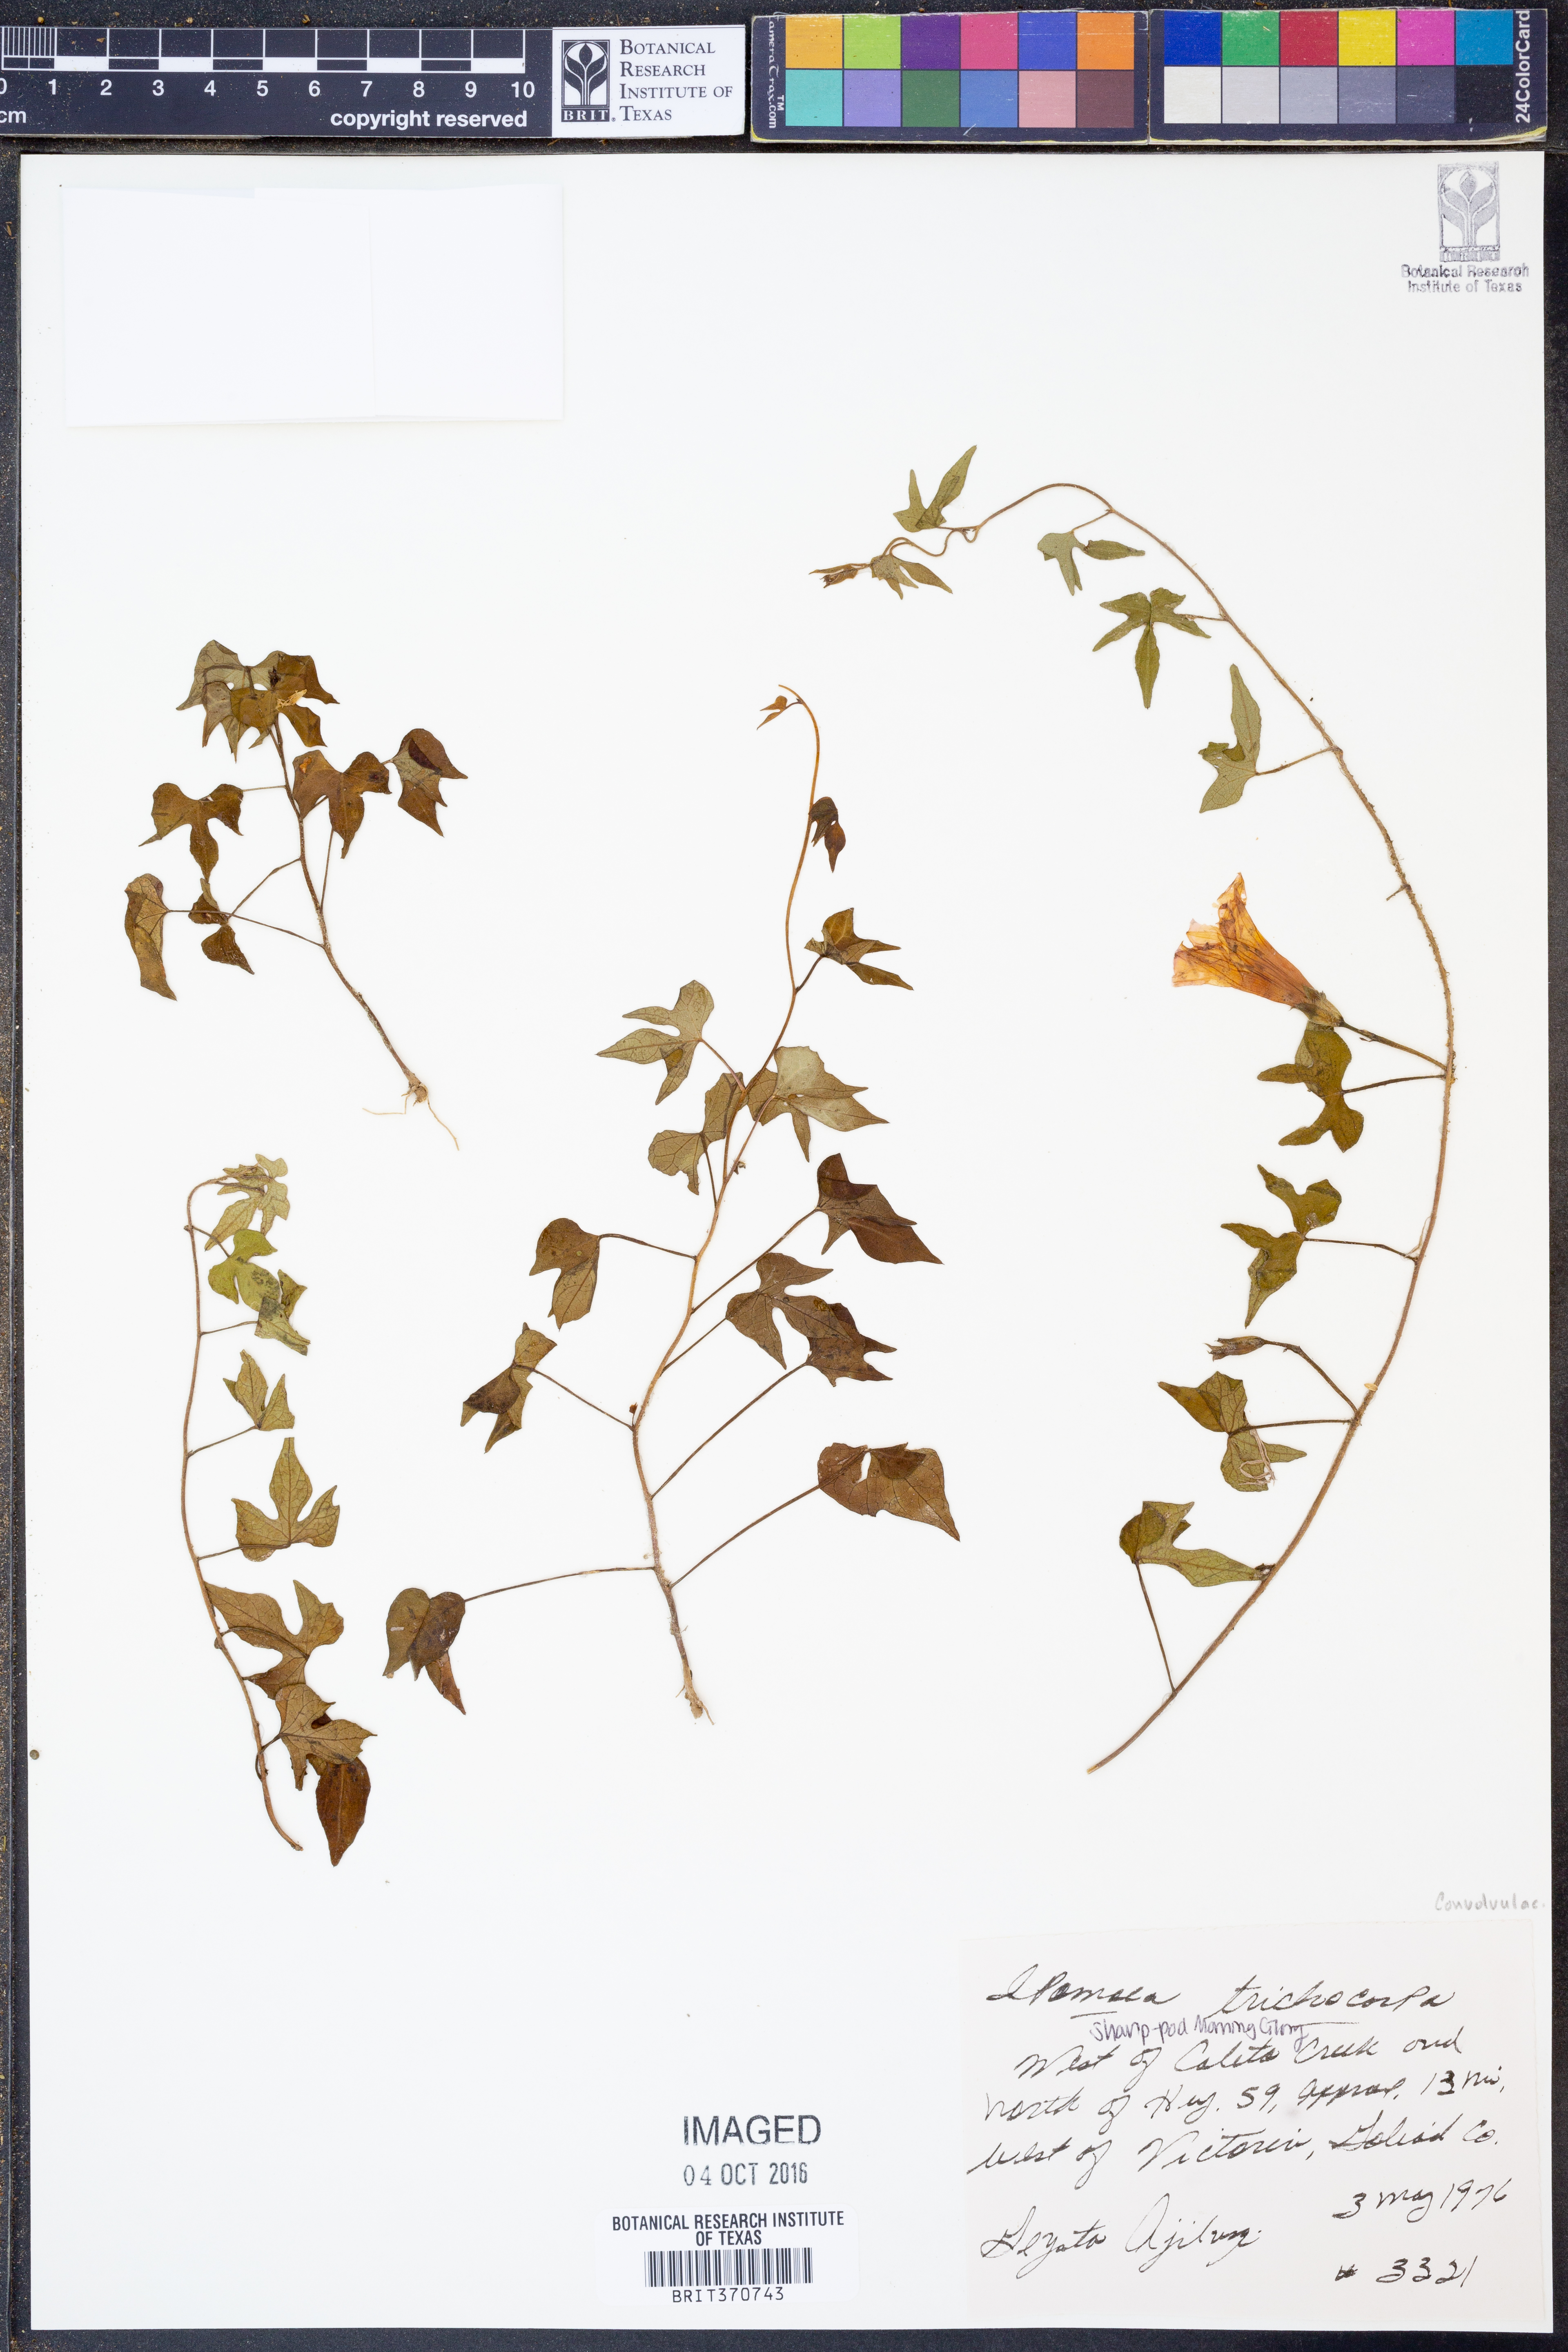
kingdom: Plantae
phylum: Tracheophyta
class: Magnoliopsida
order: Solanales
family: Convolvulaceae
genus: Ipomoea
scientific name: Ipomoea cordatotriloba
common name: Cotton morning glory
